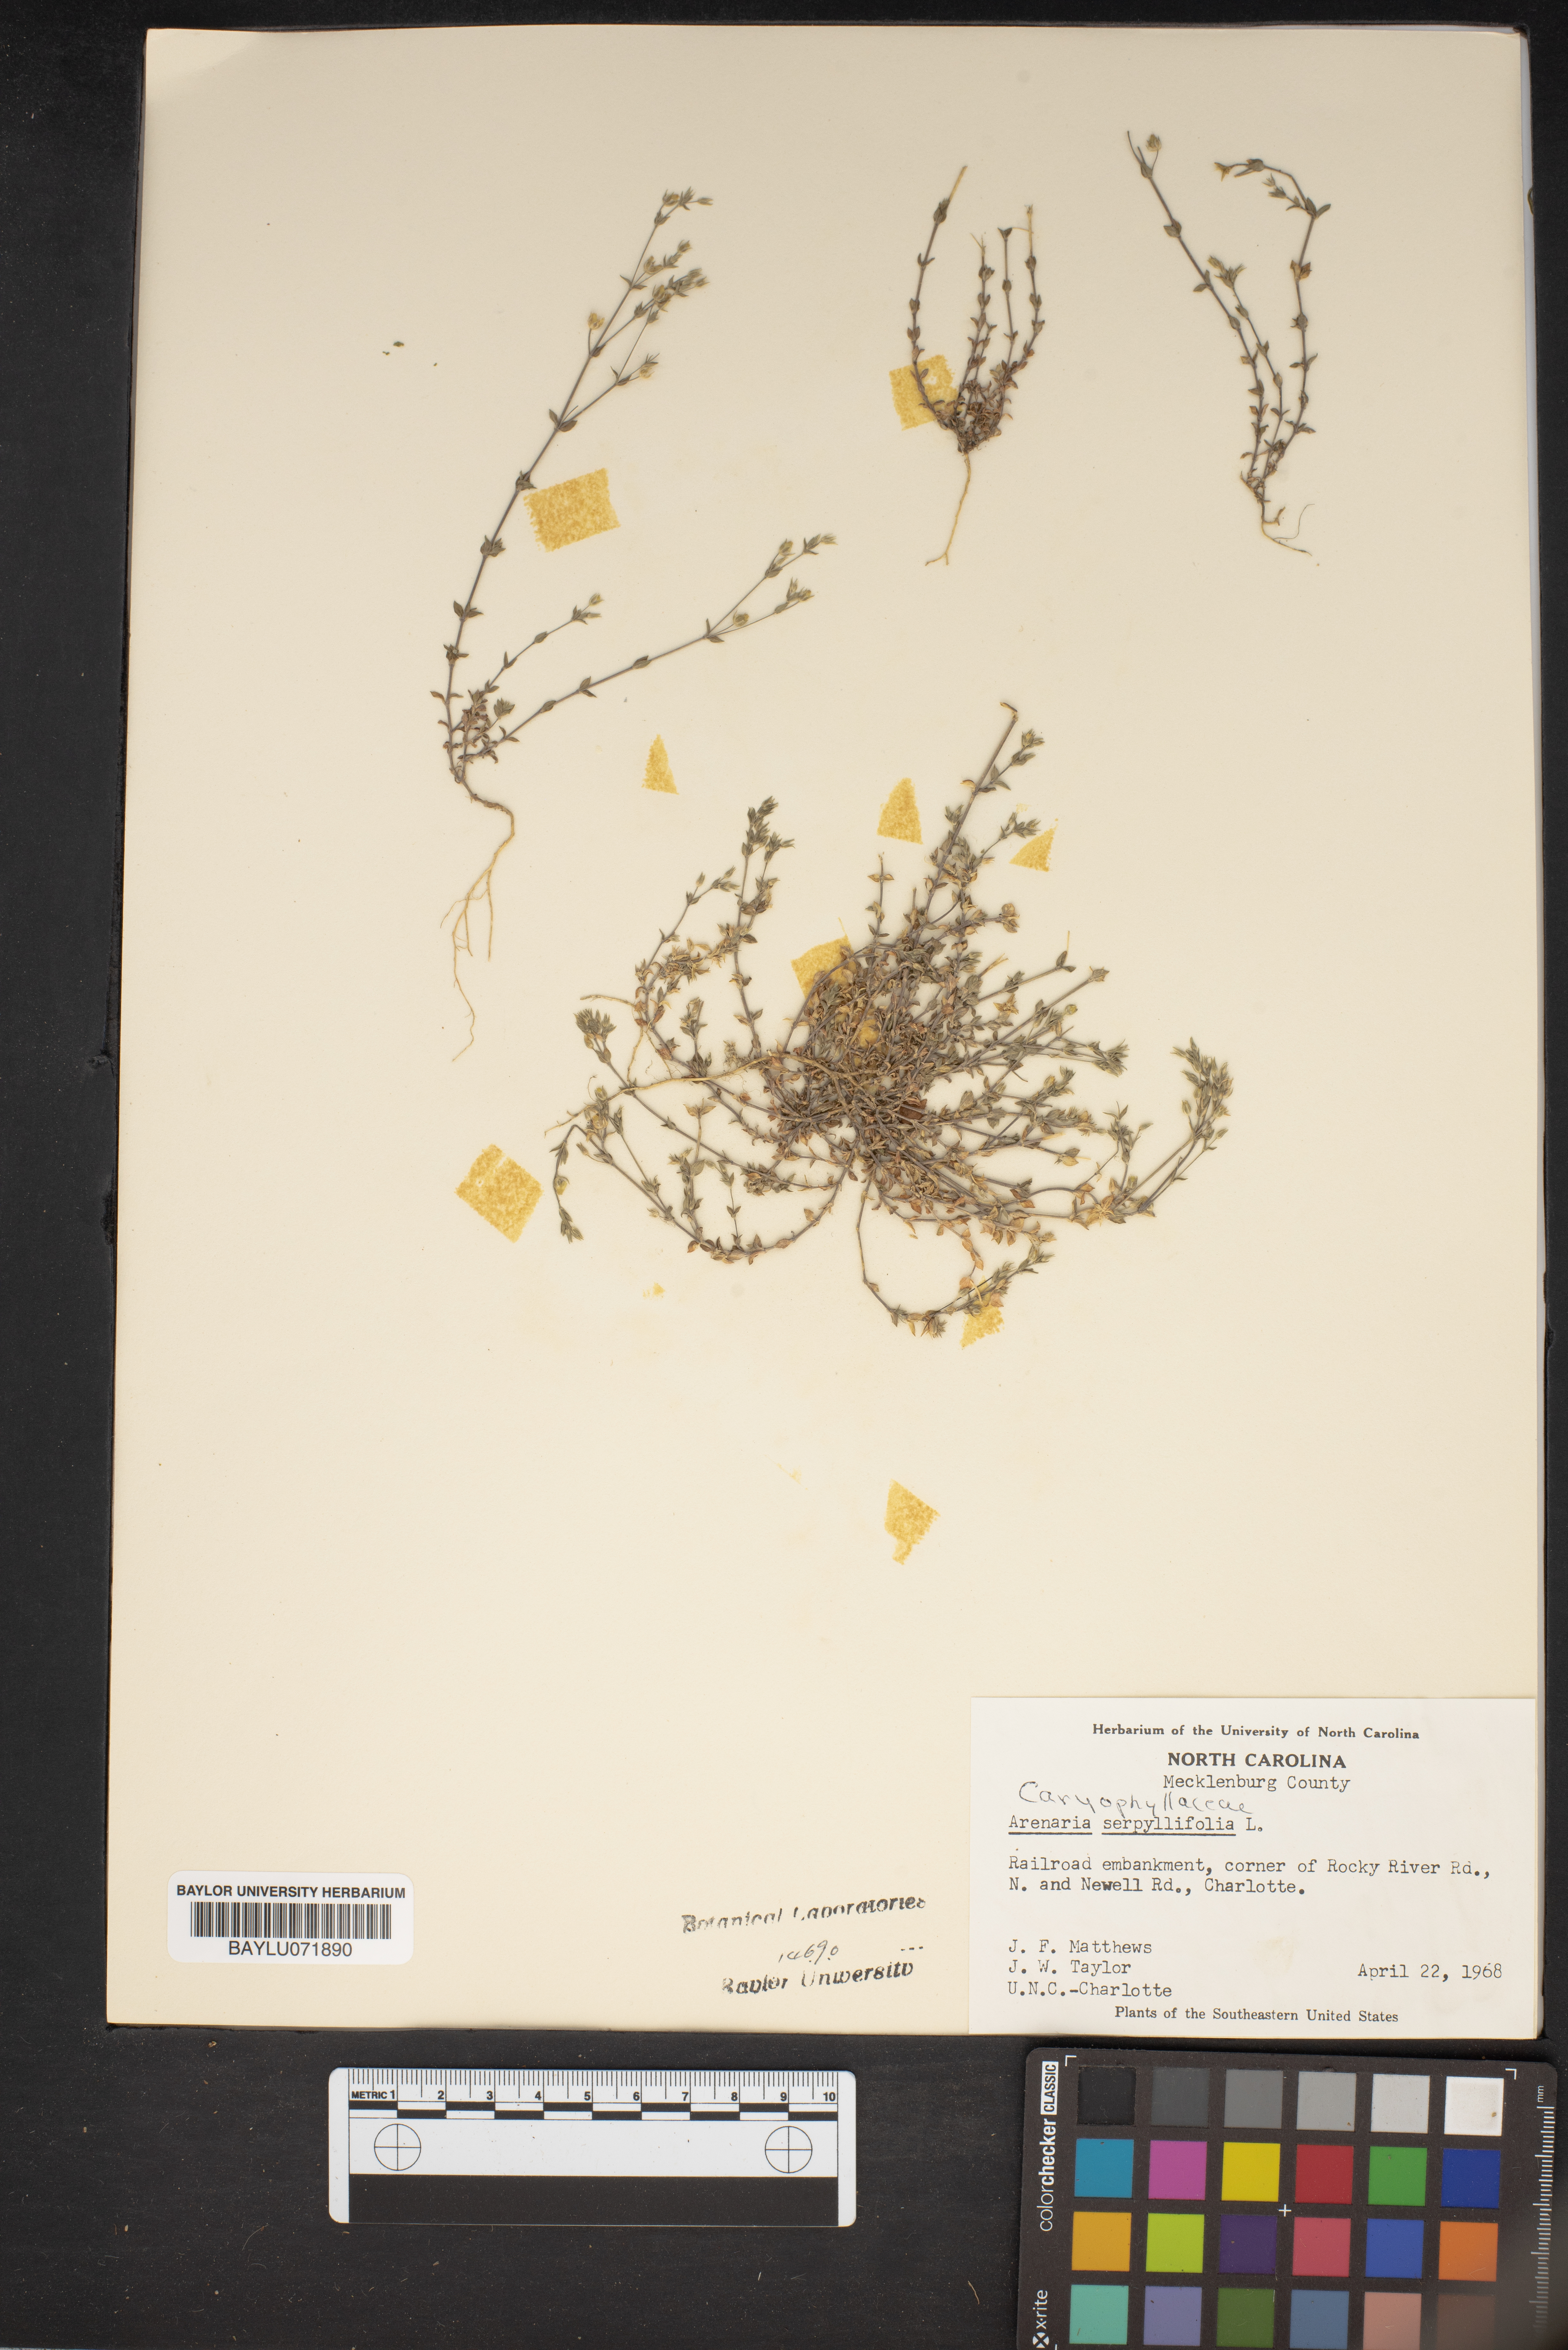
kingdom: Plantae
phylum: Tracheophyta
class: Magnoliopsida
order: Caryophyllales
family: Caryophyllaceae
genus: Arenaria
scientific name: Arenaria serpyllifolia
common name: Thyme-leaved sandwort
